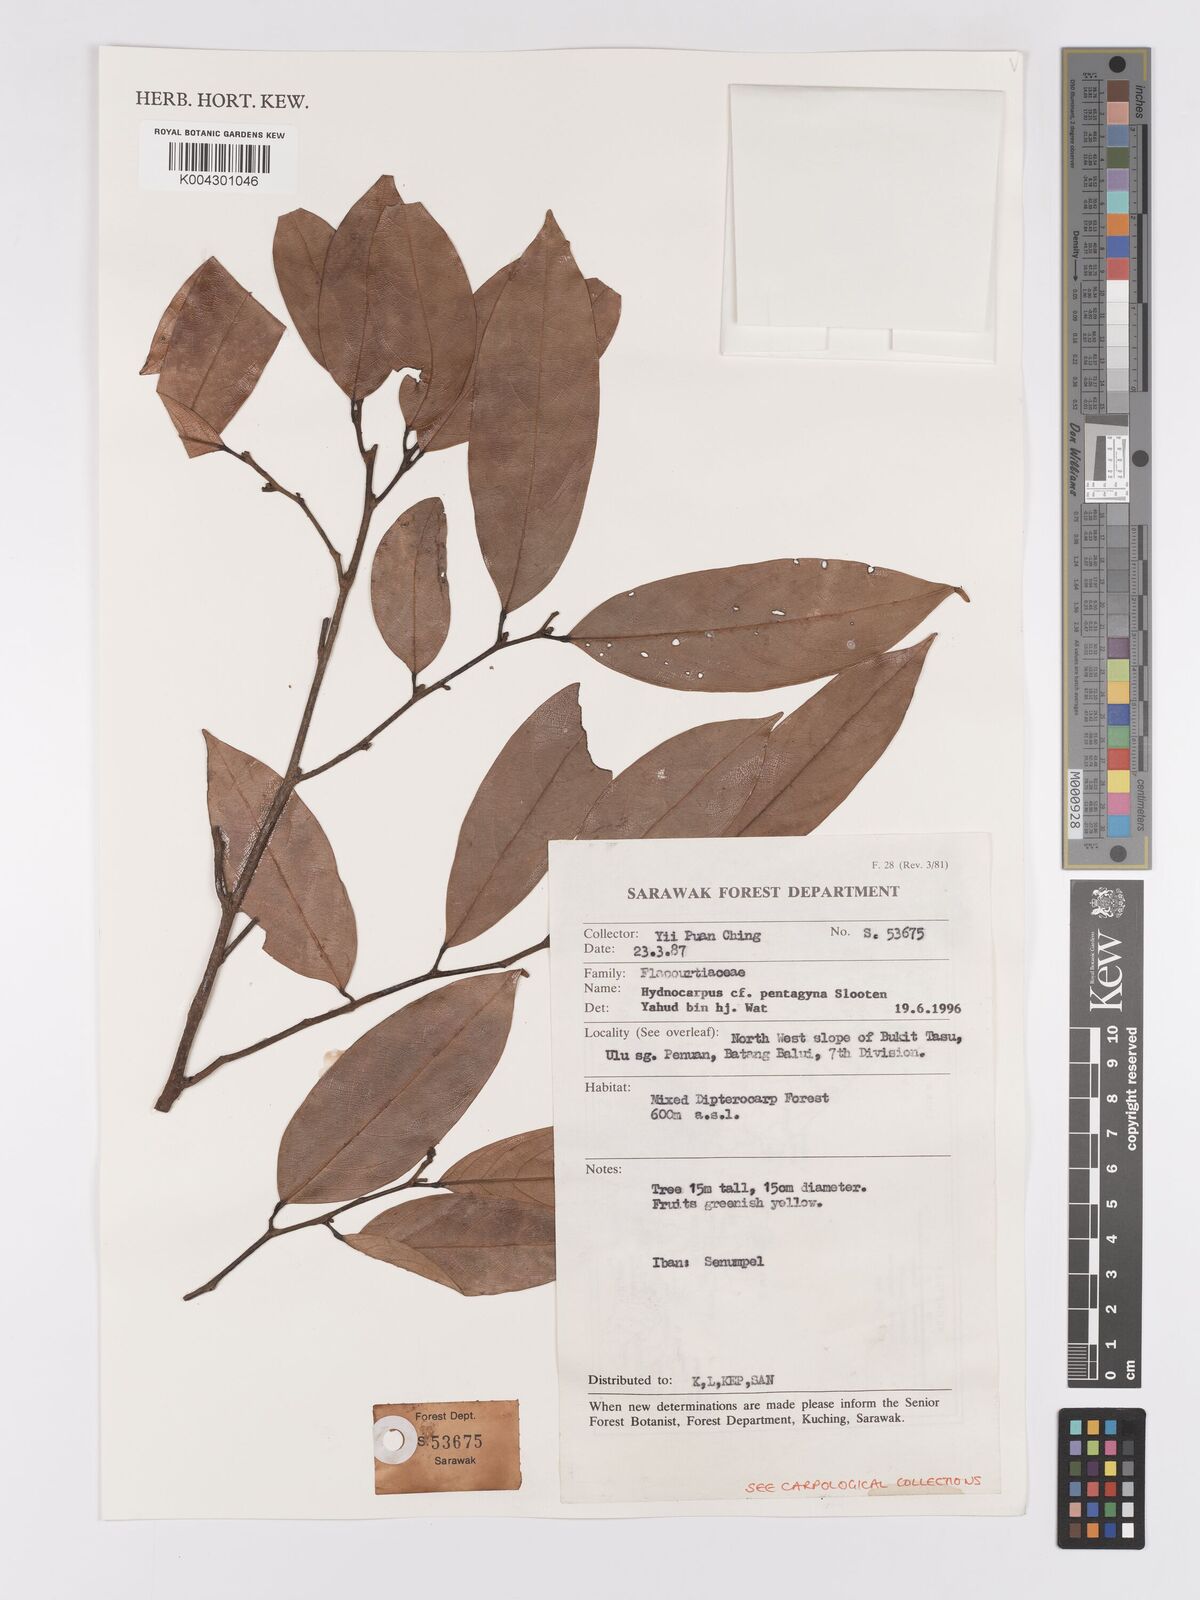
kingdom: Plantae
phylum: Tracheophyta
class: Magnoliopsida
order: Malpighiales
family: Achariaceae
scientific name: Achariaceae
